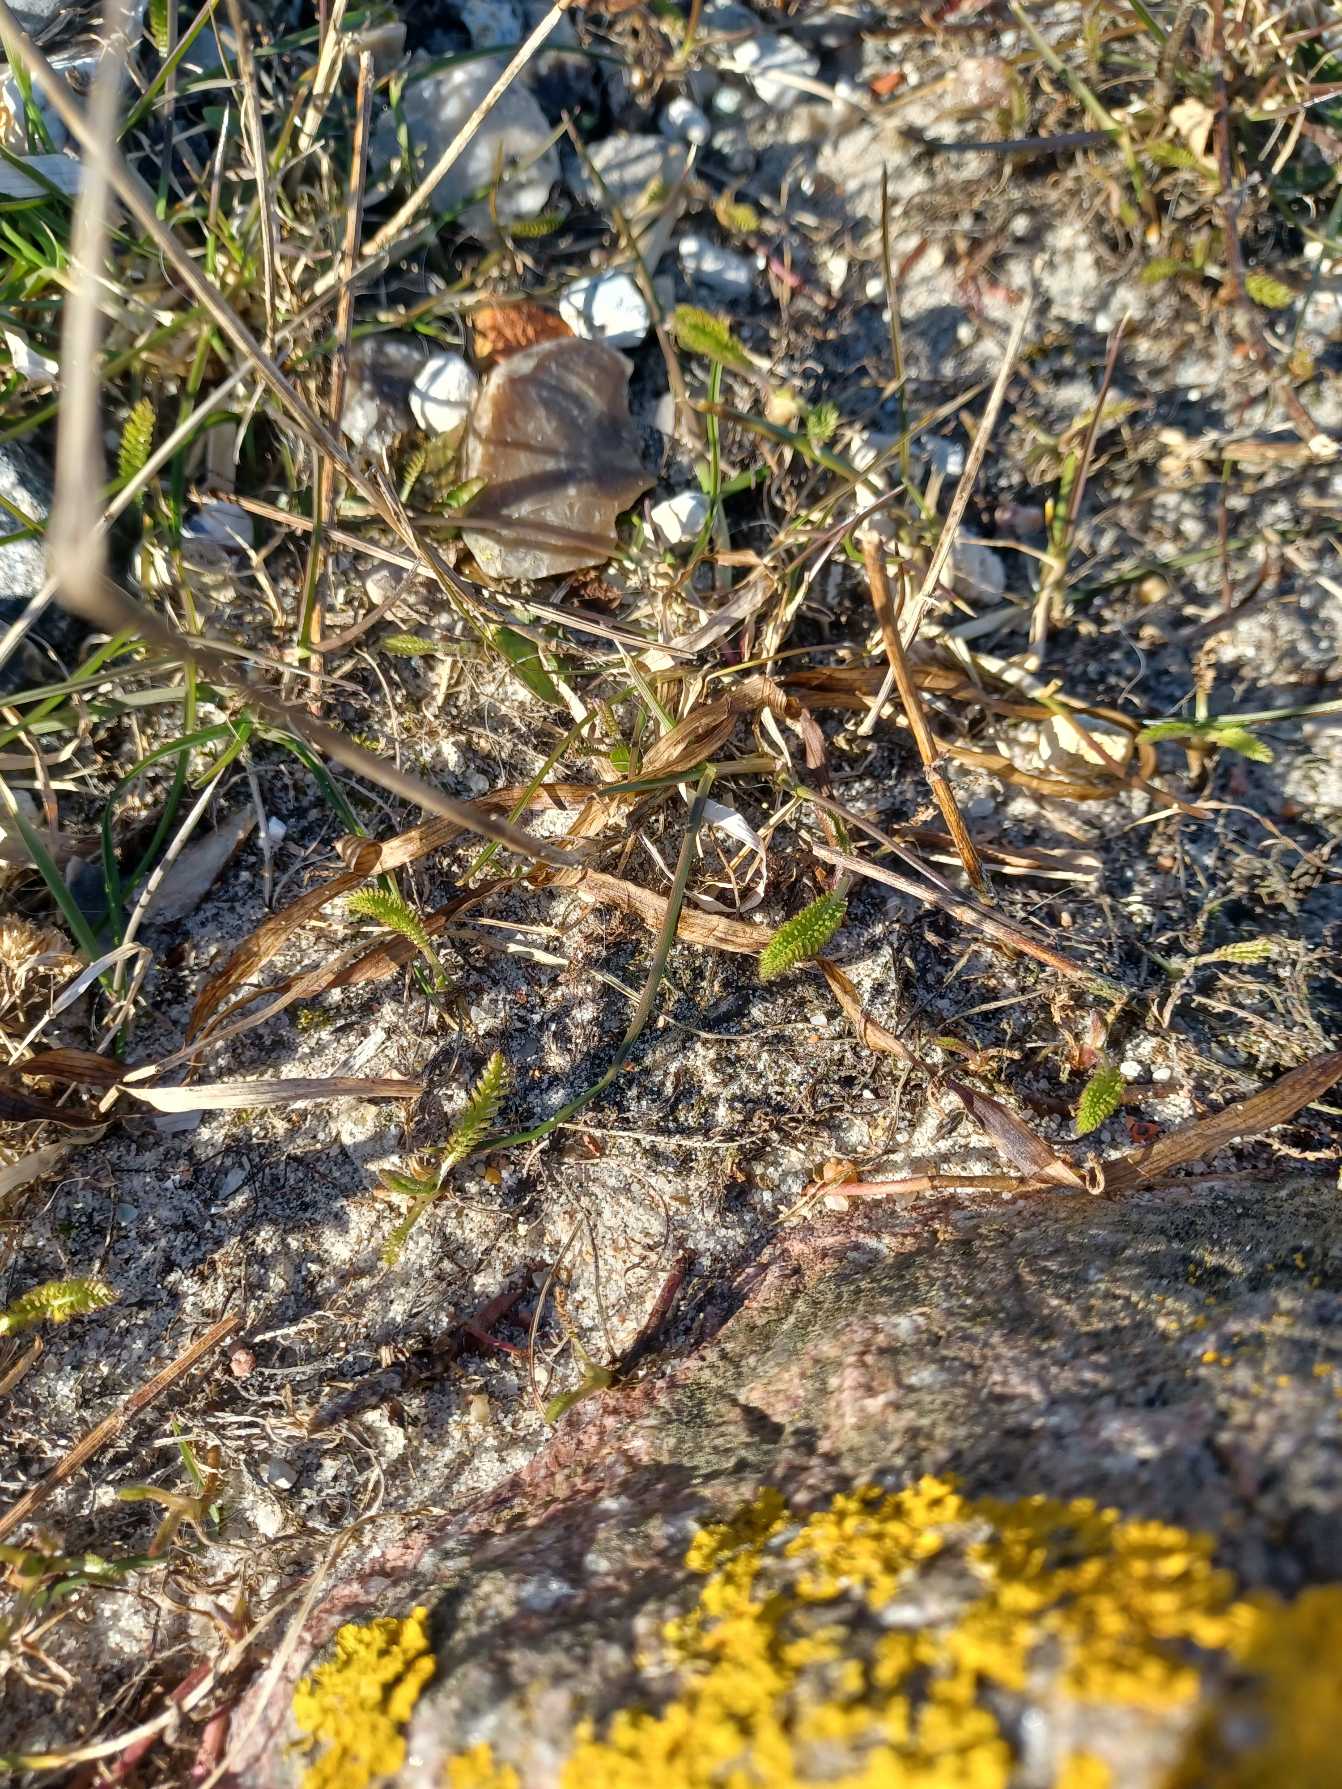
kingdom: Plantae
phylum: Tracheophyta
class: Magnoliopsida
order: Asterales
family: Asteraceae
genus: Achillea
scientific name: Achillea millefolium
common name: Almindelig røllike
